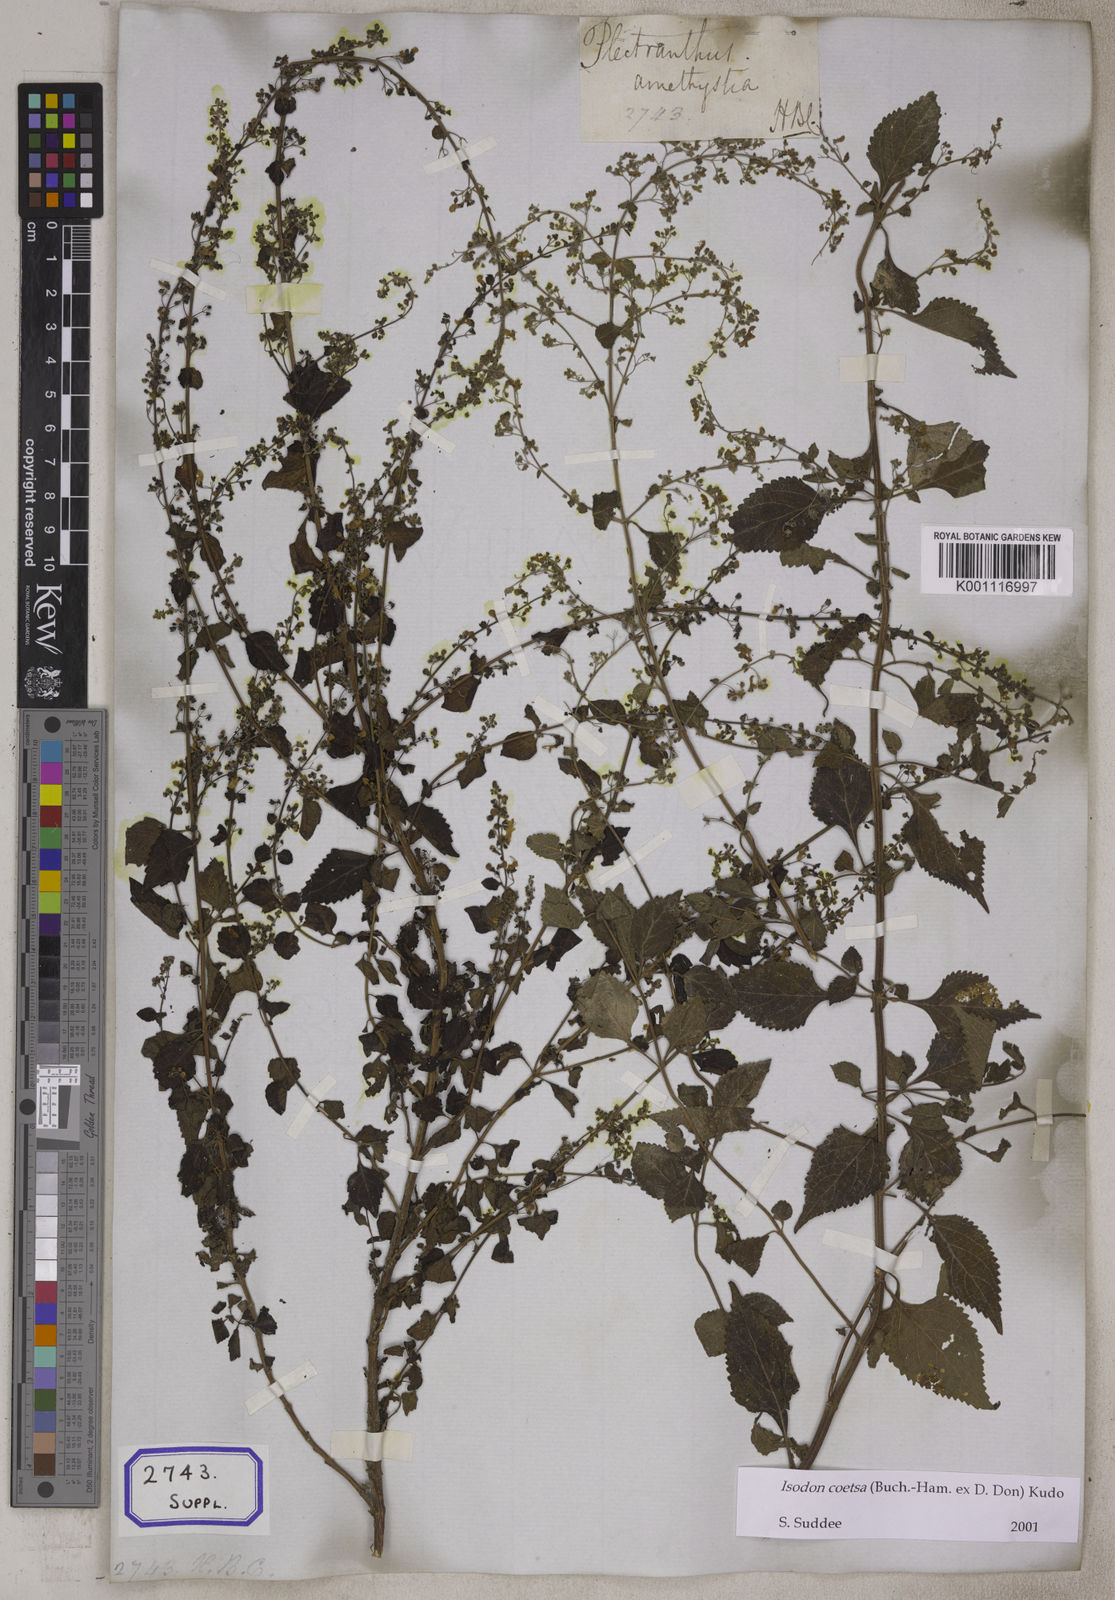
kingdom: Plantae
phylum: Tracheophyta
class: Magnoliopsida
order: Lamiales
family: Lamiaceae
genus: Isodon
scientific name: Isodon coetsa
